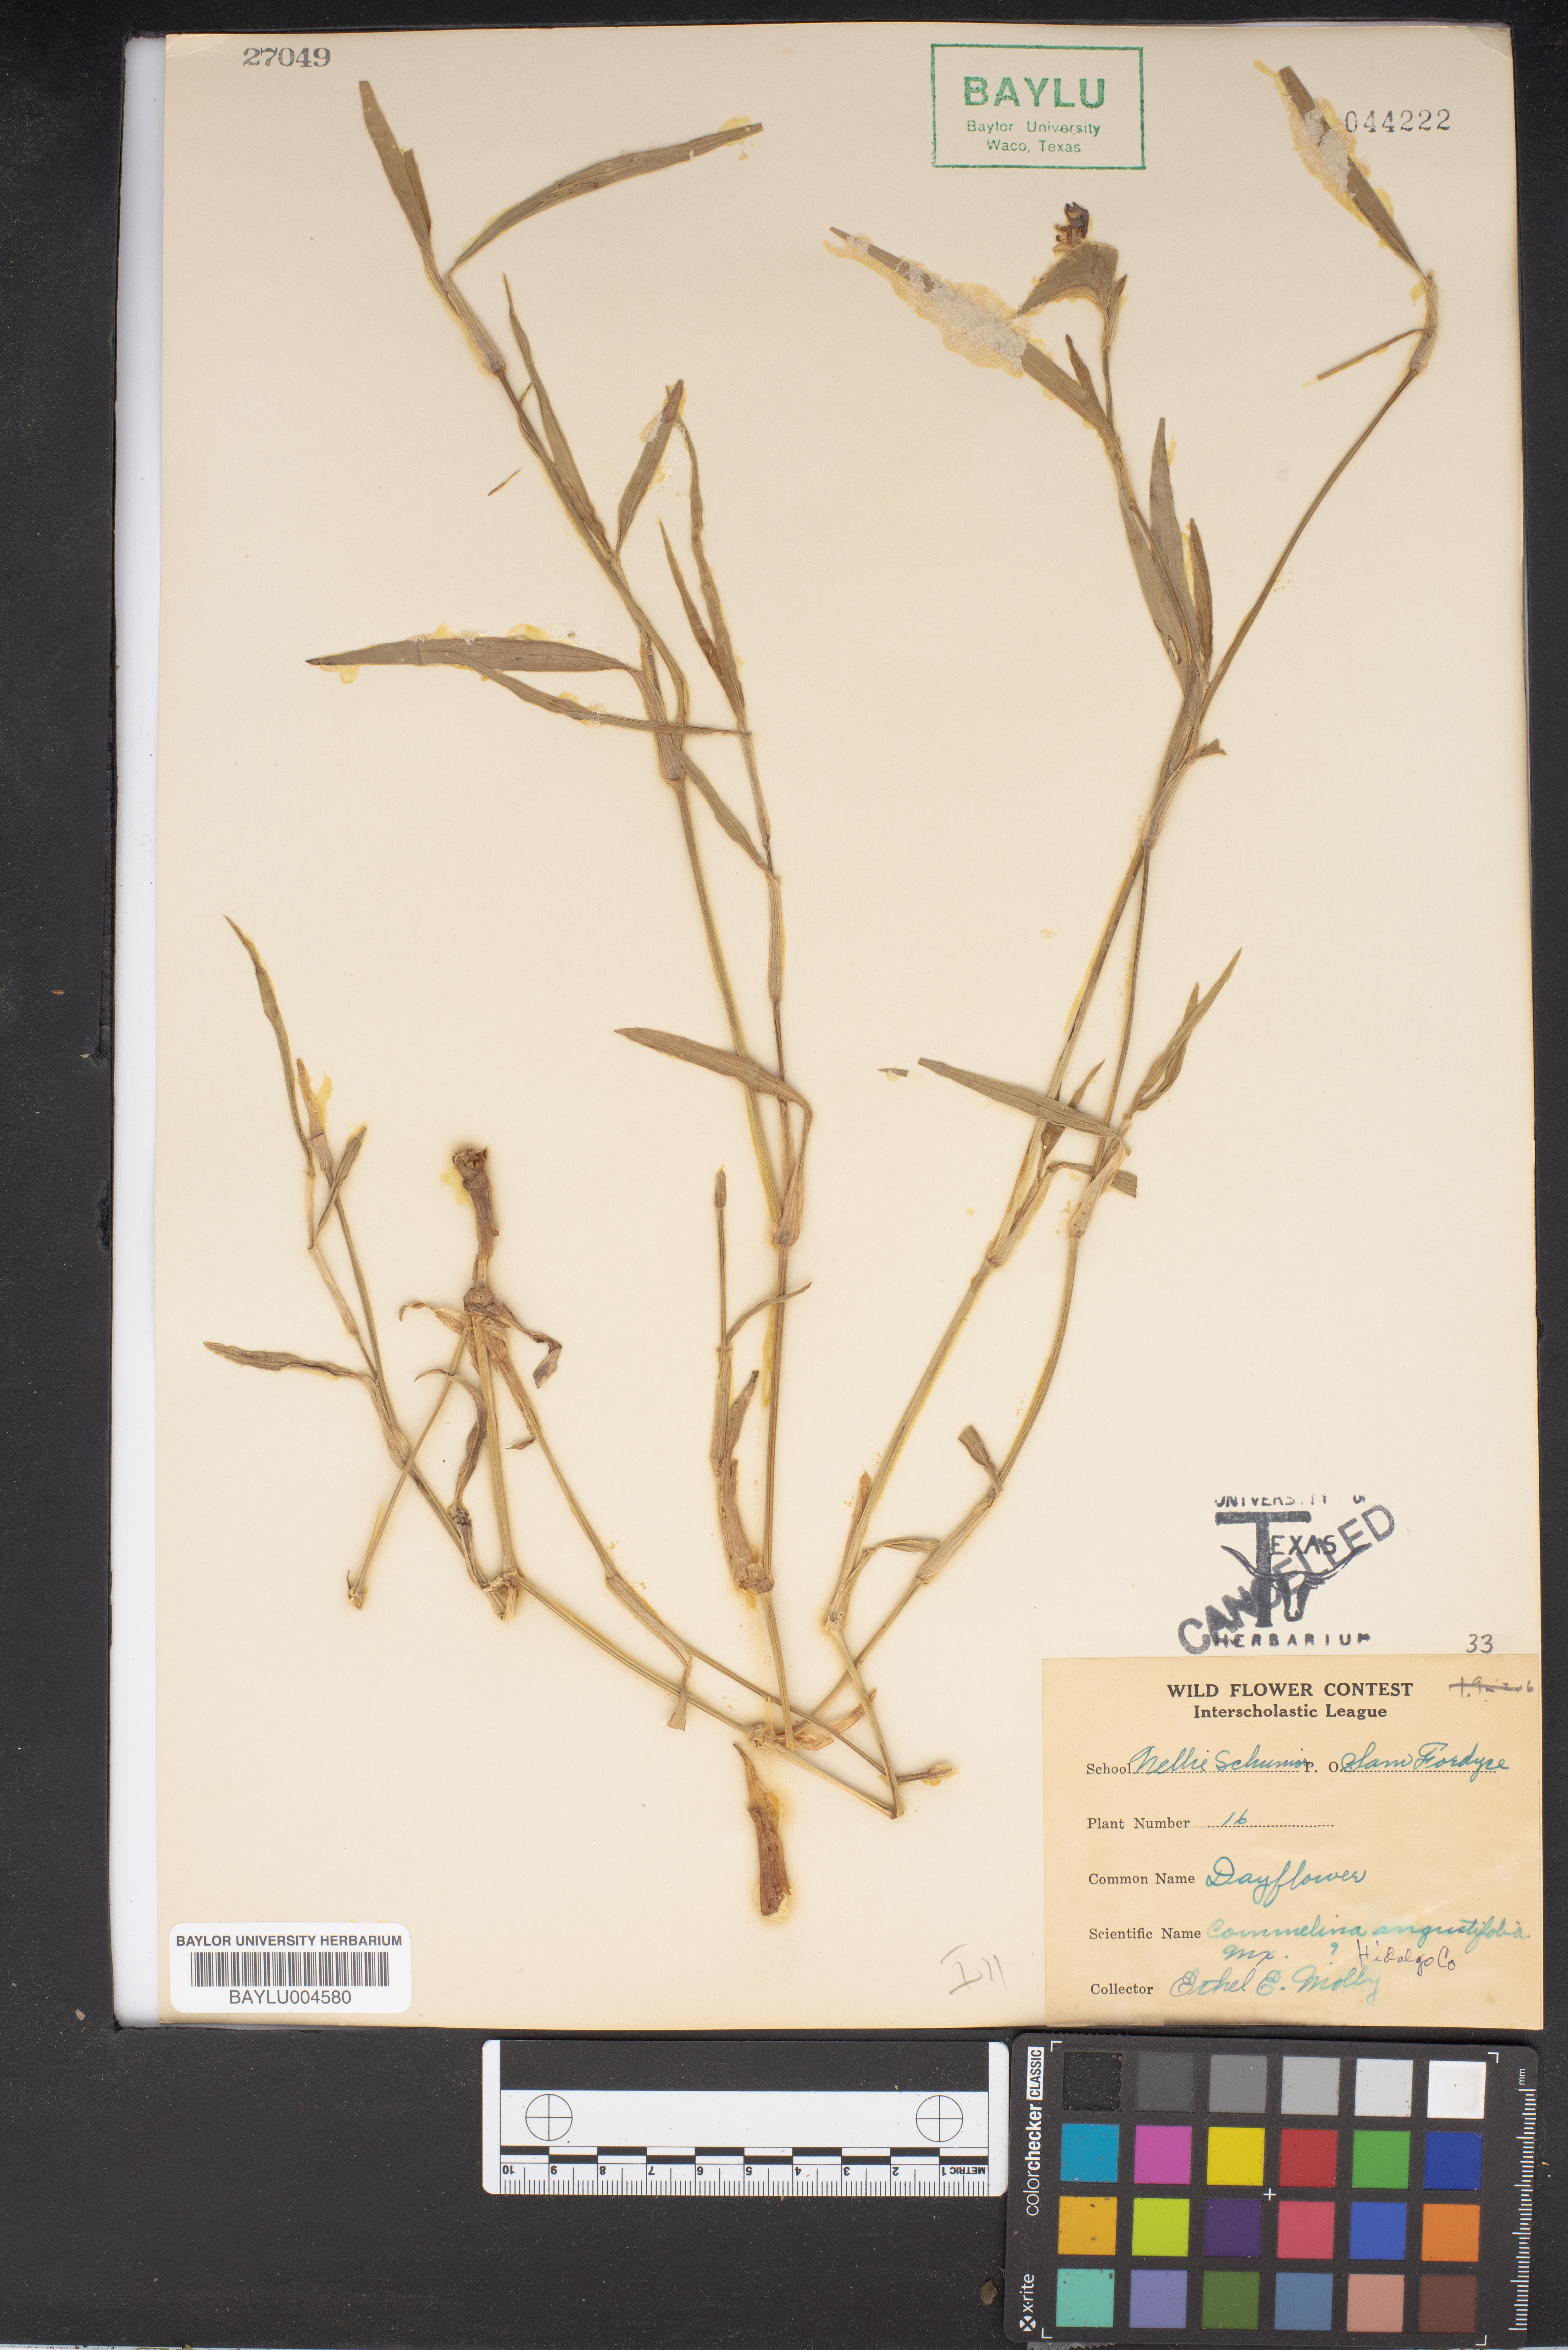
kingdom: Plantae
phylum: Tracheophyta
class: Liliopsida
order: Commelinales
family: Commelinaceae
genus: Commelina
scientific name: Commelina erecta
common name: Blousel blommetjie
